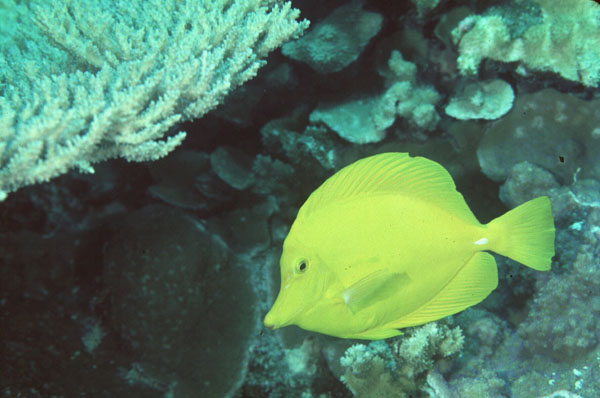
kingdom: Animalia
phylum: Chordata
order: Perciformes
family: Acanthuridae
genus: Zebrasoma
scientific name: Zebrasoma flavescens
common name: Yellow tang
